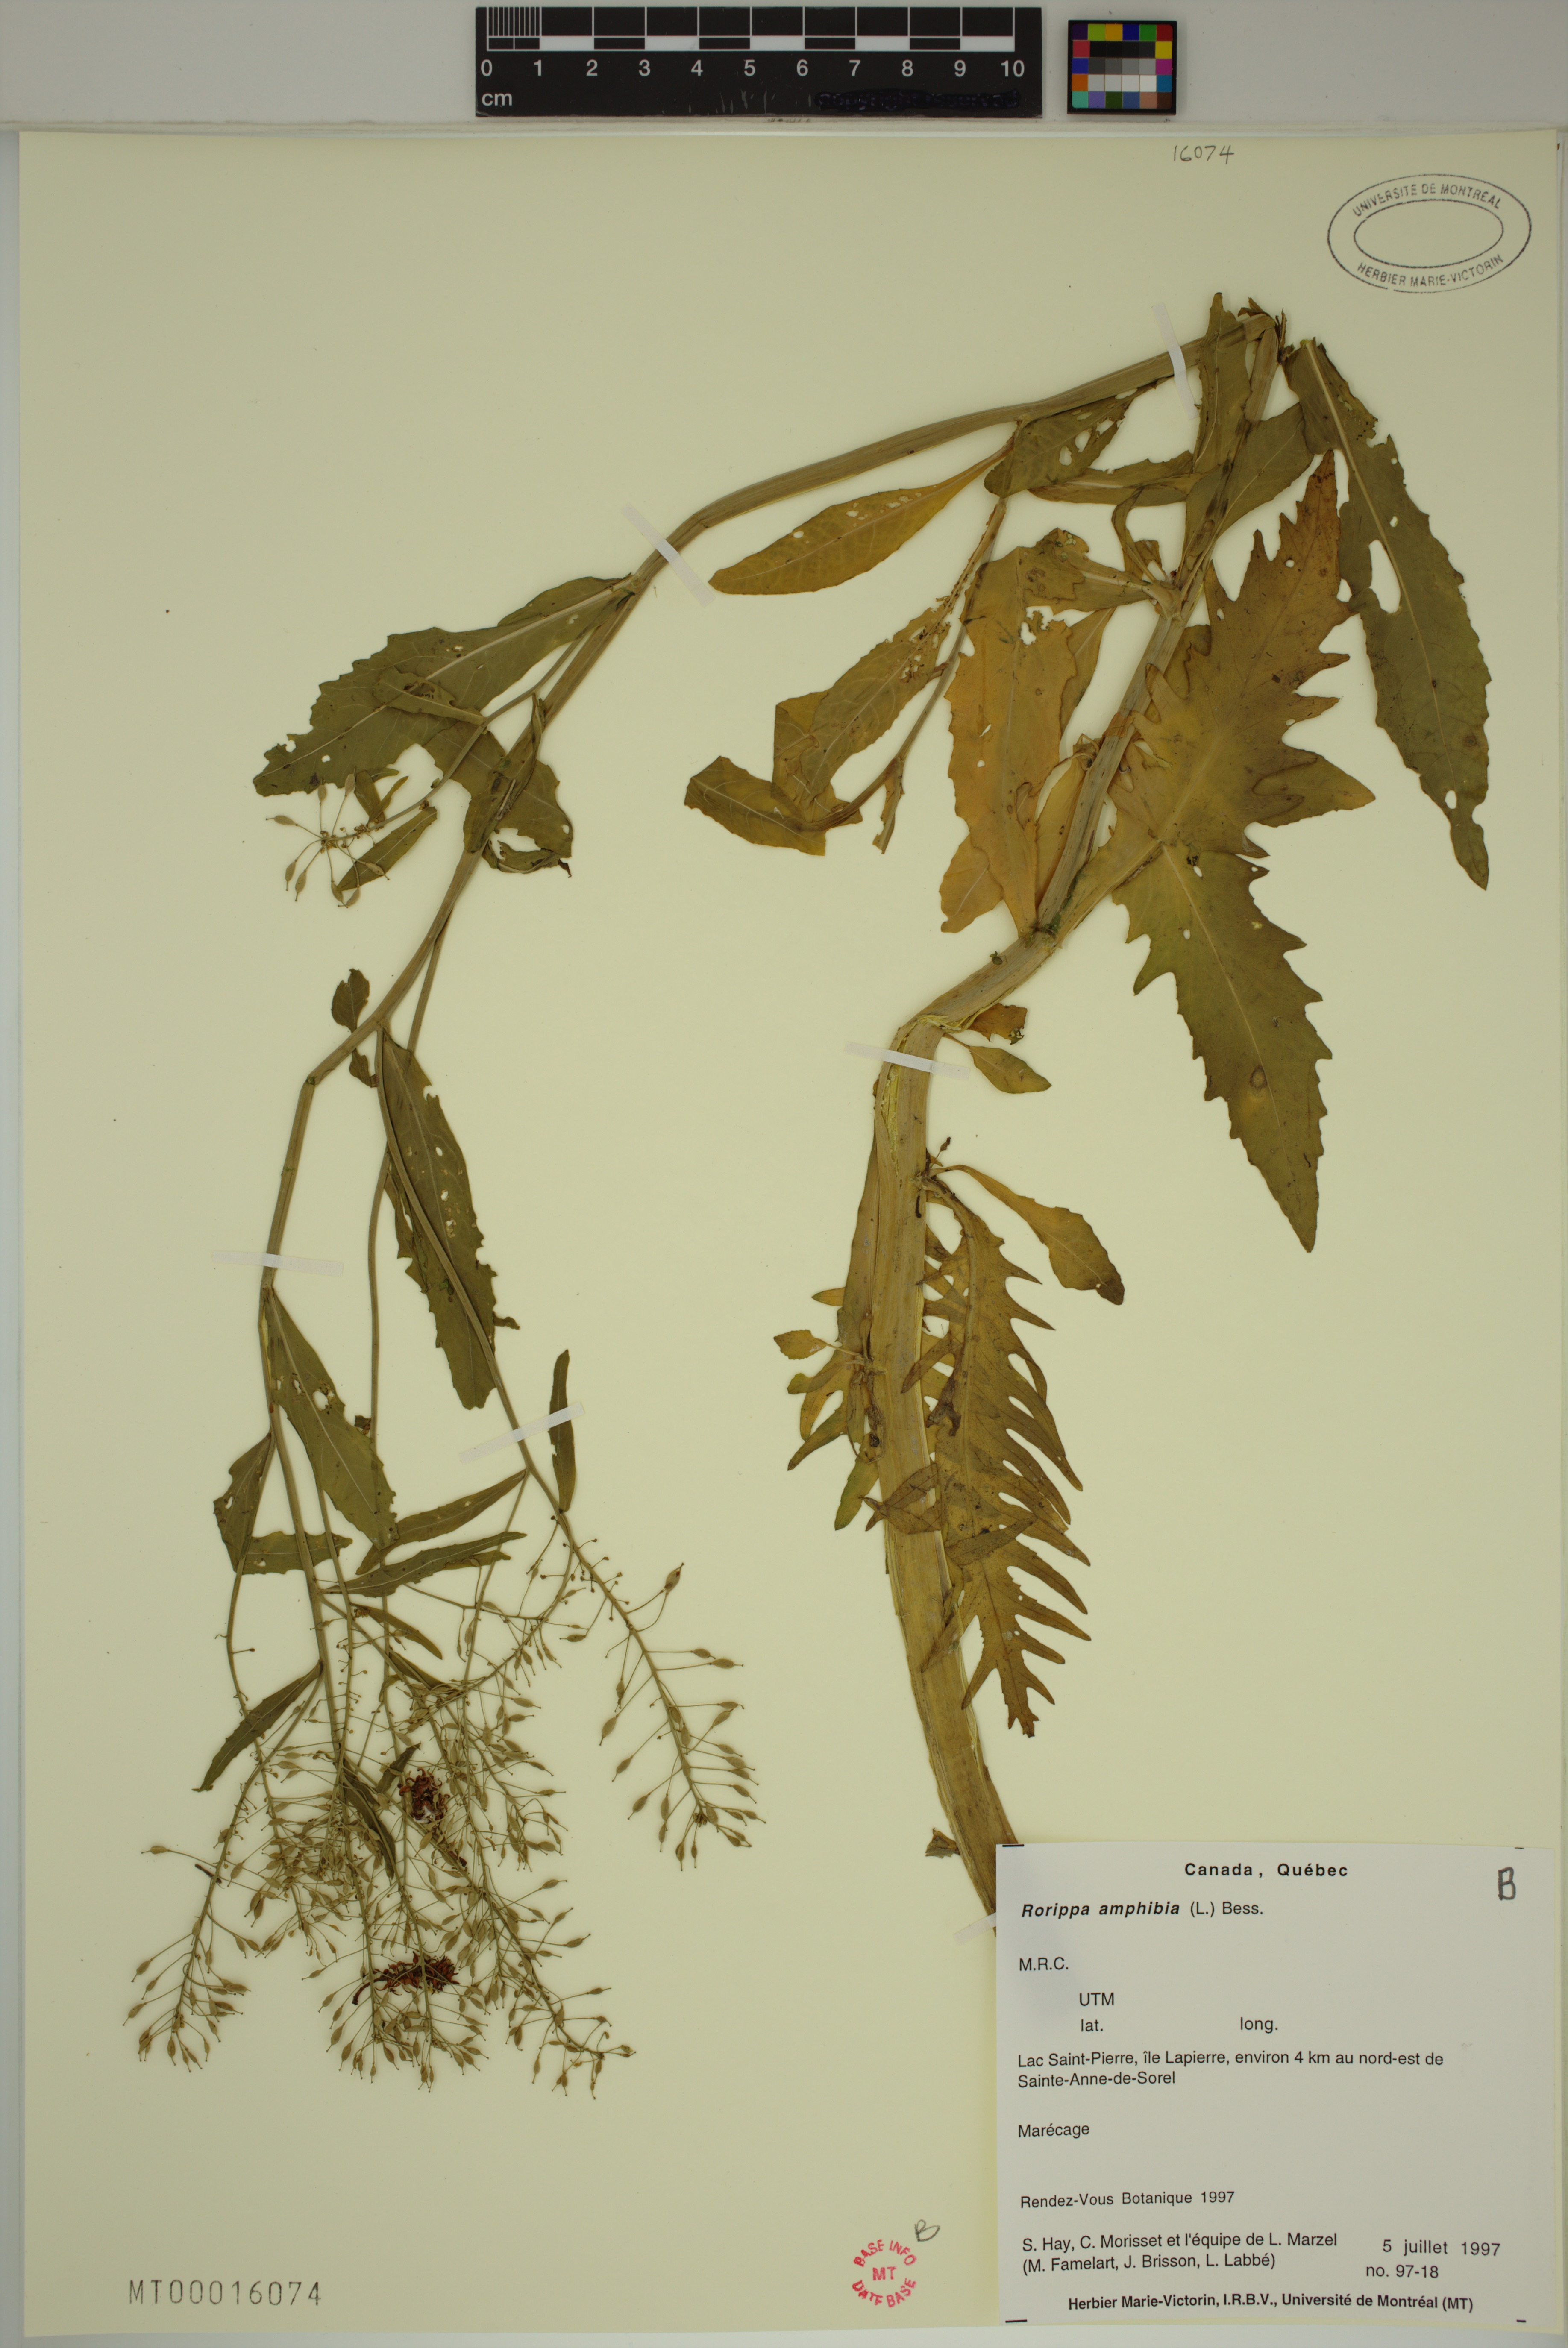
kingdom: Plantae
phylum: Tracheophyta
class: Magnoliopsida
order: Brassicales
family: Brassicaceae
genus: Rorippa
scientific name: Rorippa amphibia
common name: Great yellow-cress
